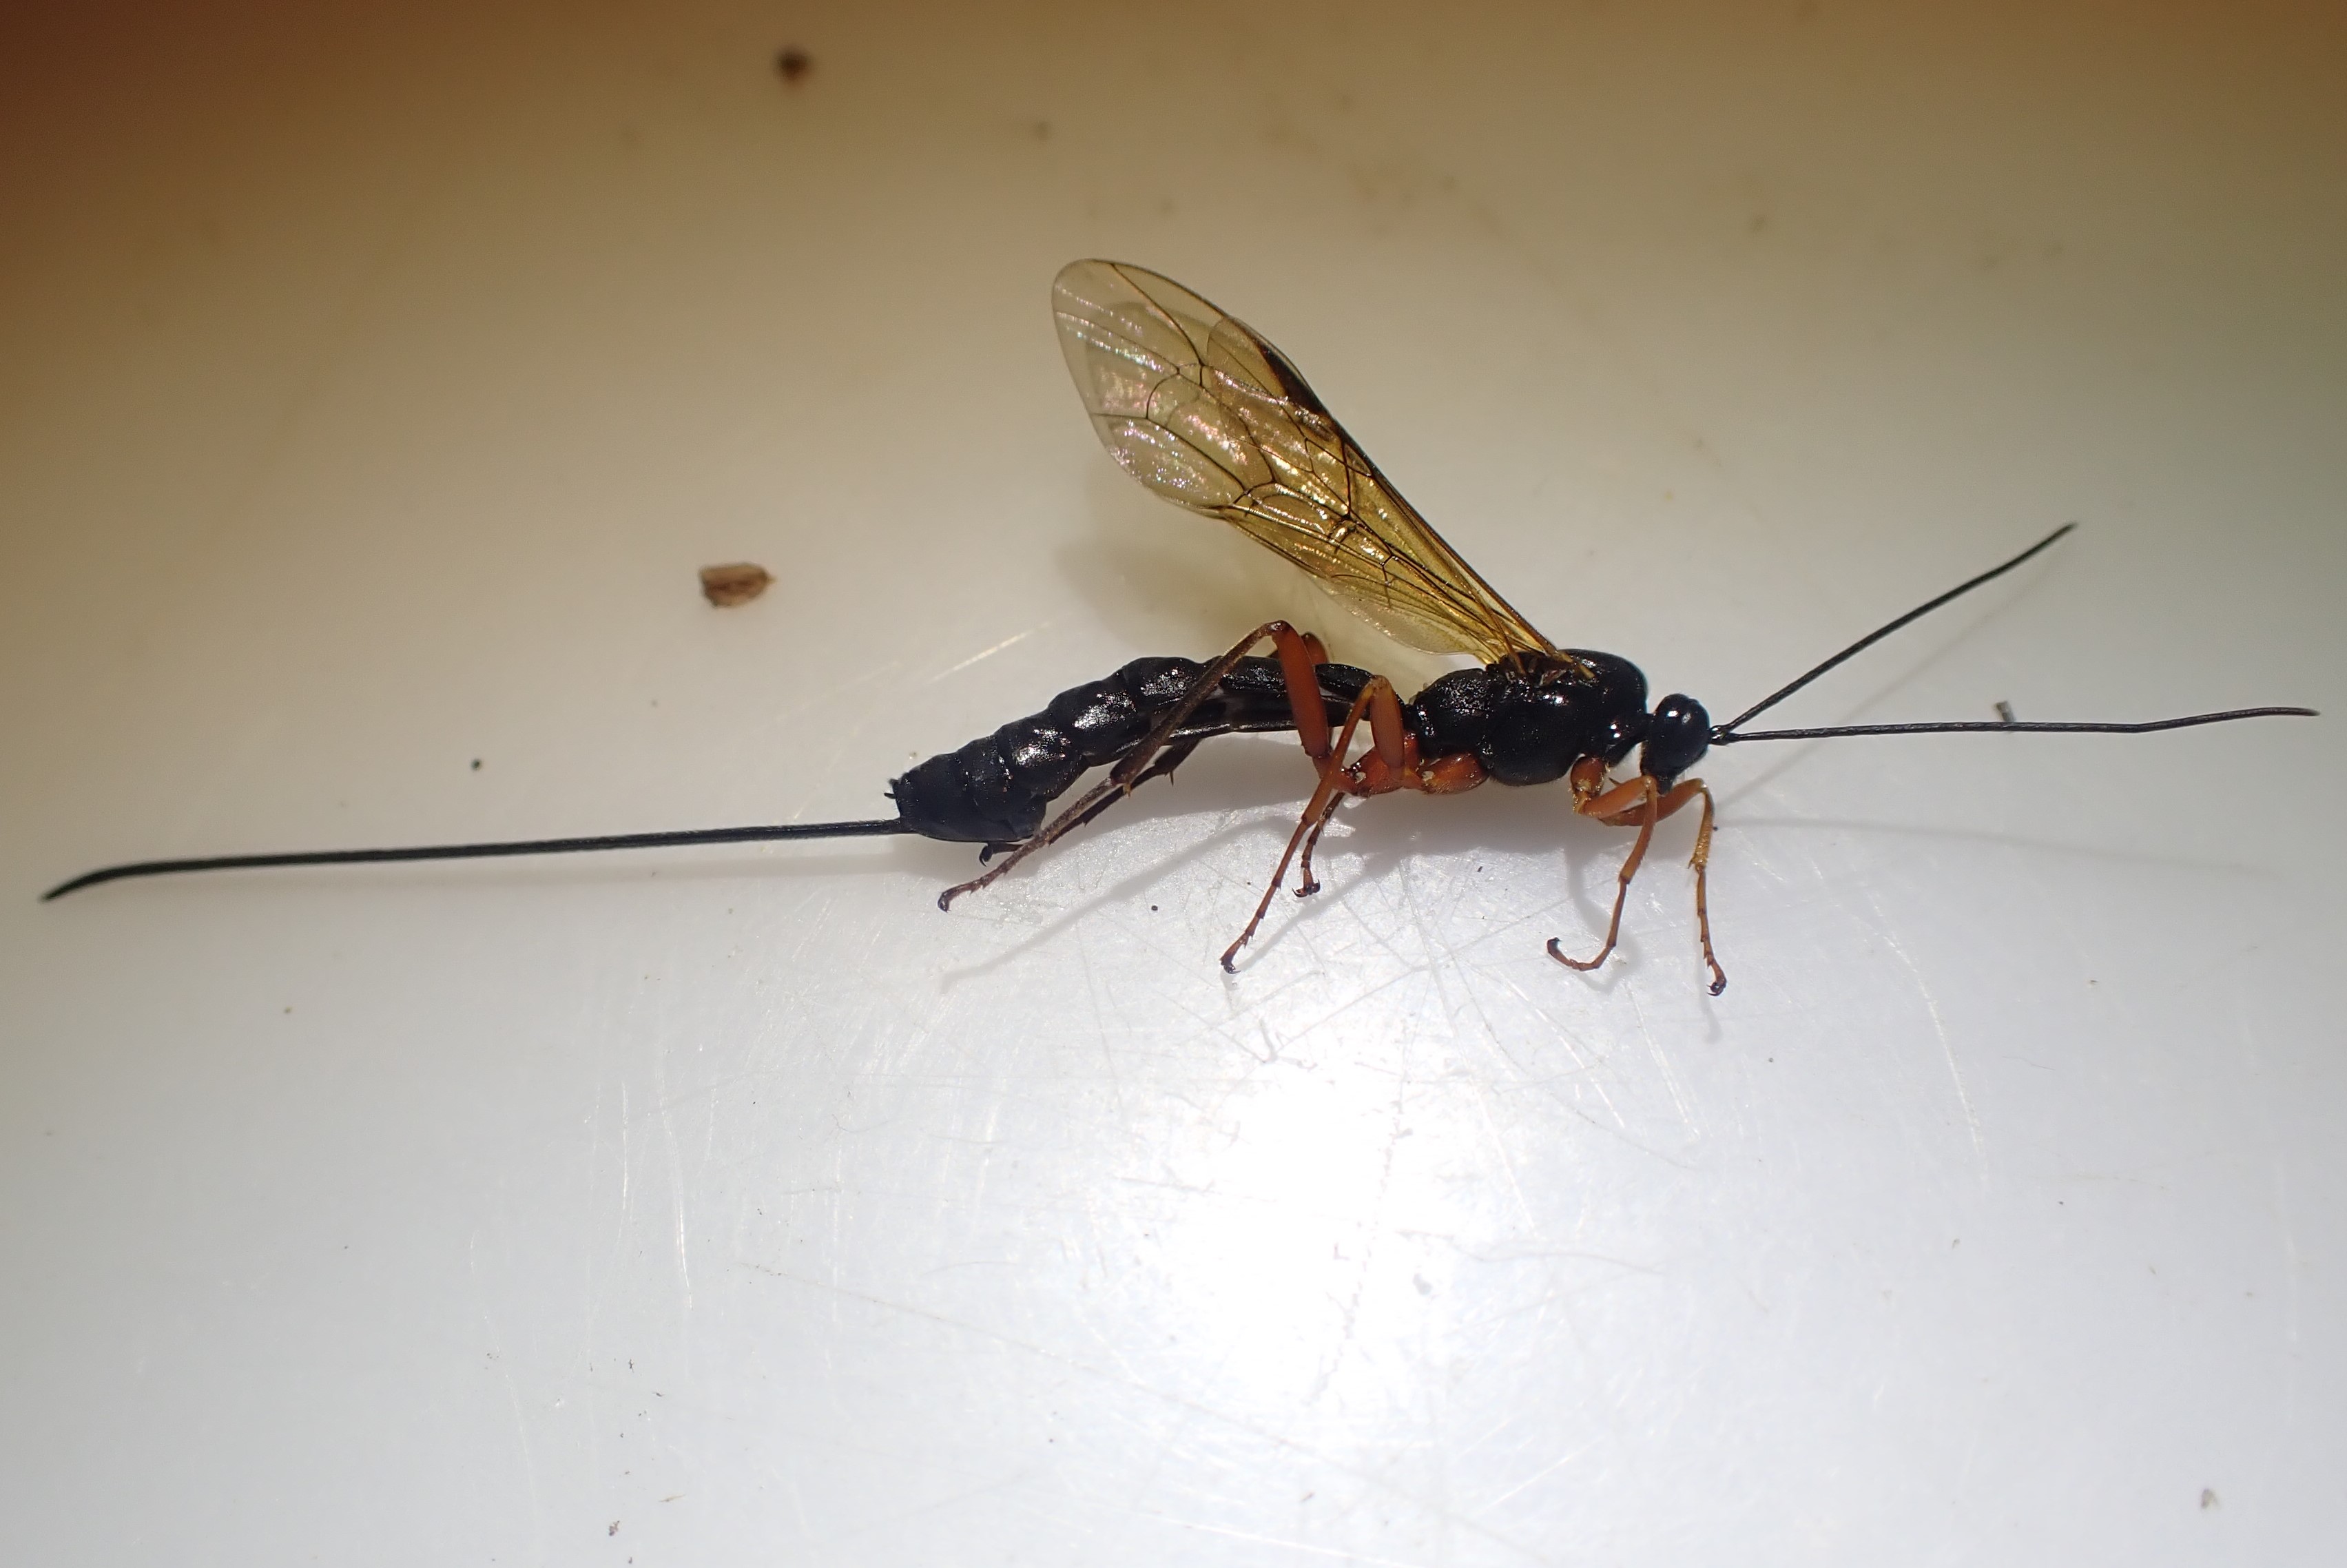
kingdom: Animalia
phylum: Arthropoda
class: Insecta
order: Hymenoptera
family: Ichneumonidae
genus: Dolichomitus
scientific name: Dolichomitus
